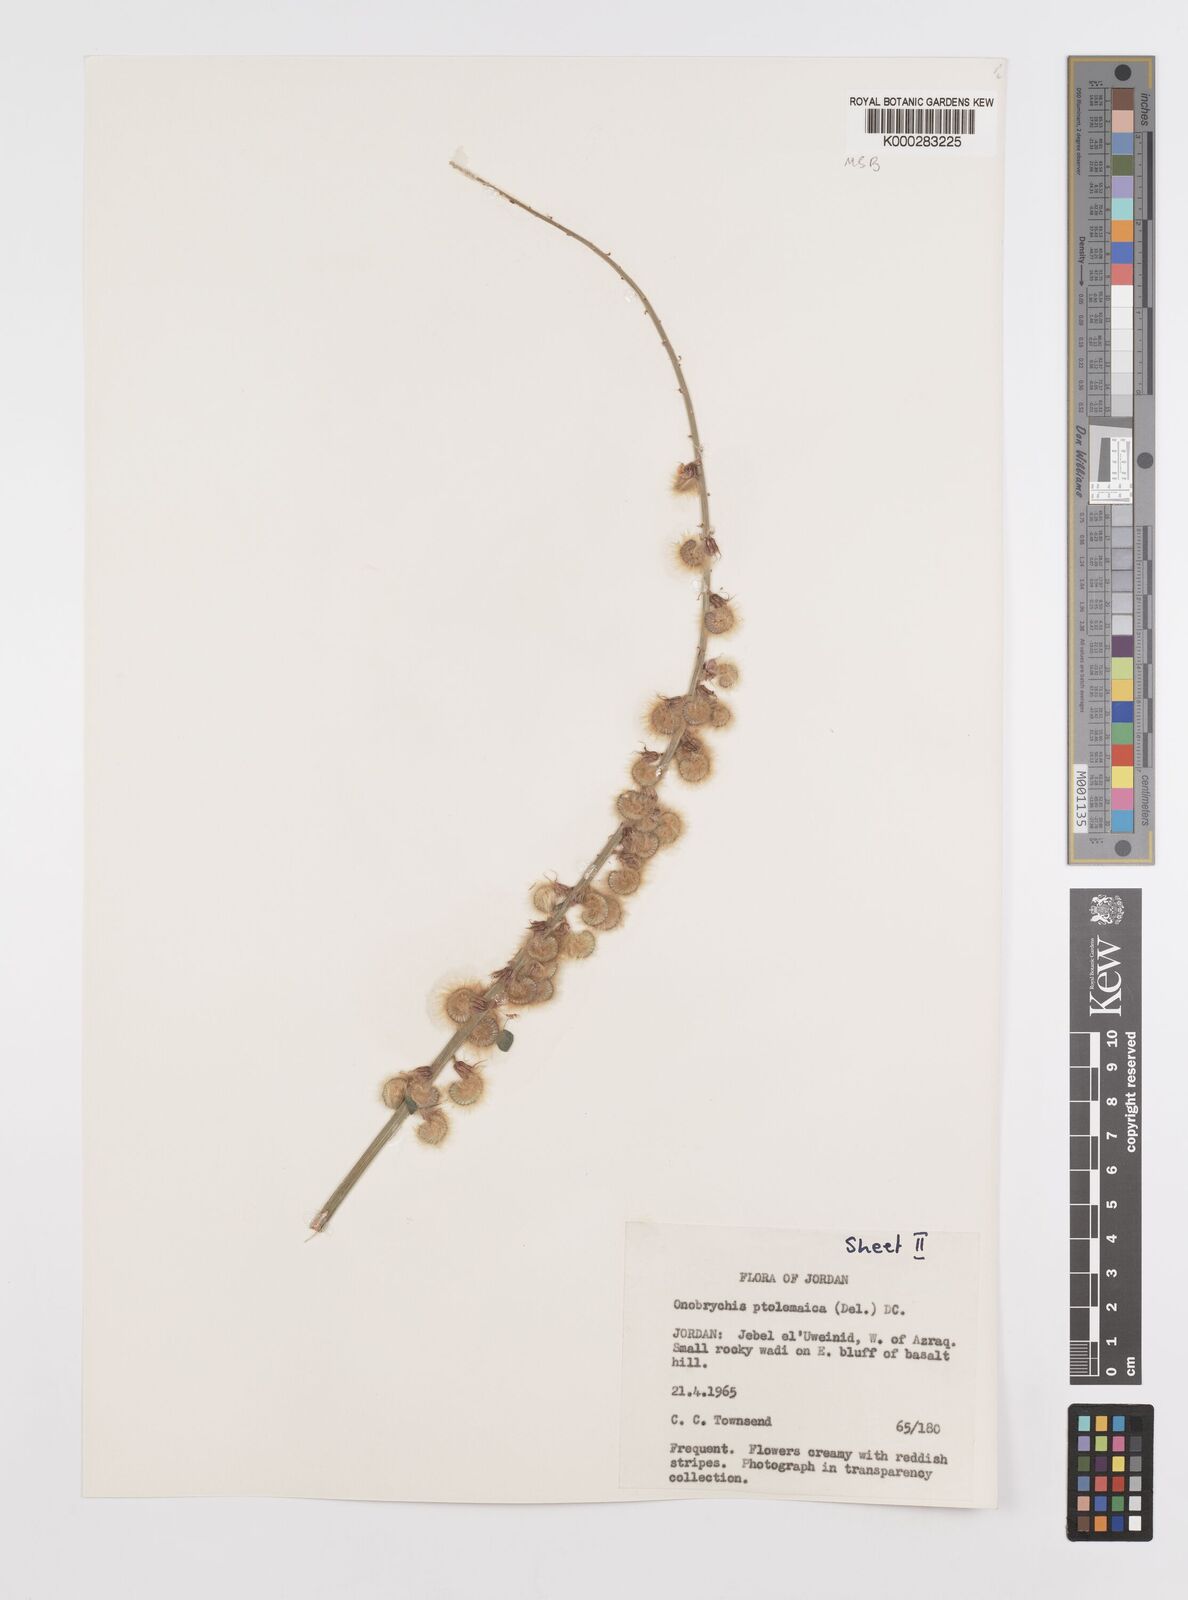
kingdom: Plantae
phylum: Tracheophyta
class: Magnoliopsida
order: Fabales
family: Fabaceae
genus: Onobrychis
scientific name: Onobrychis ptolemaica
